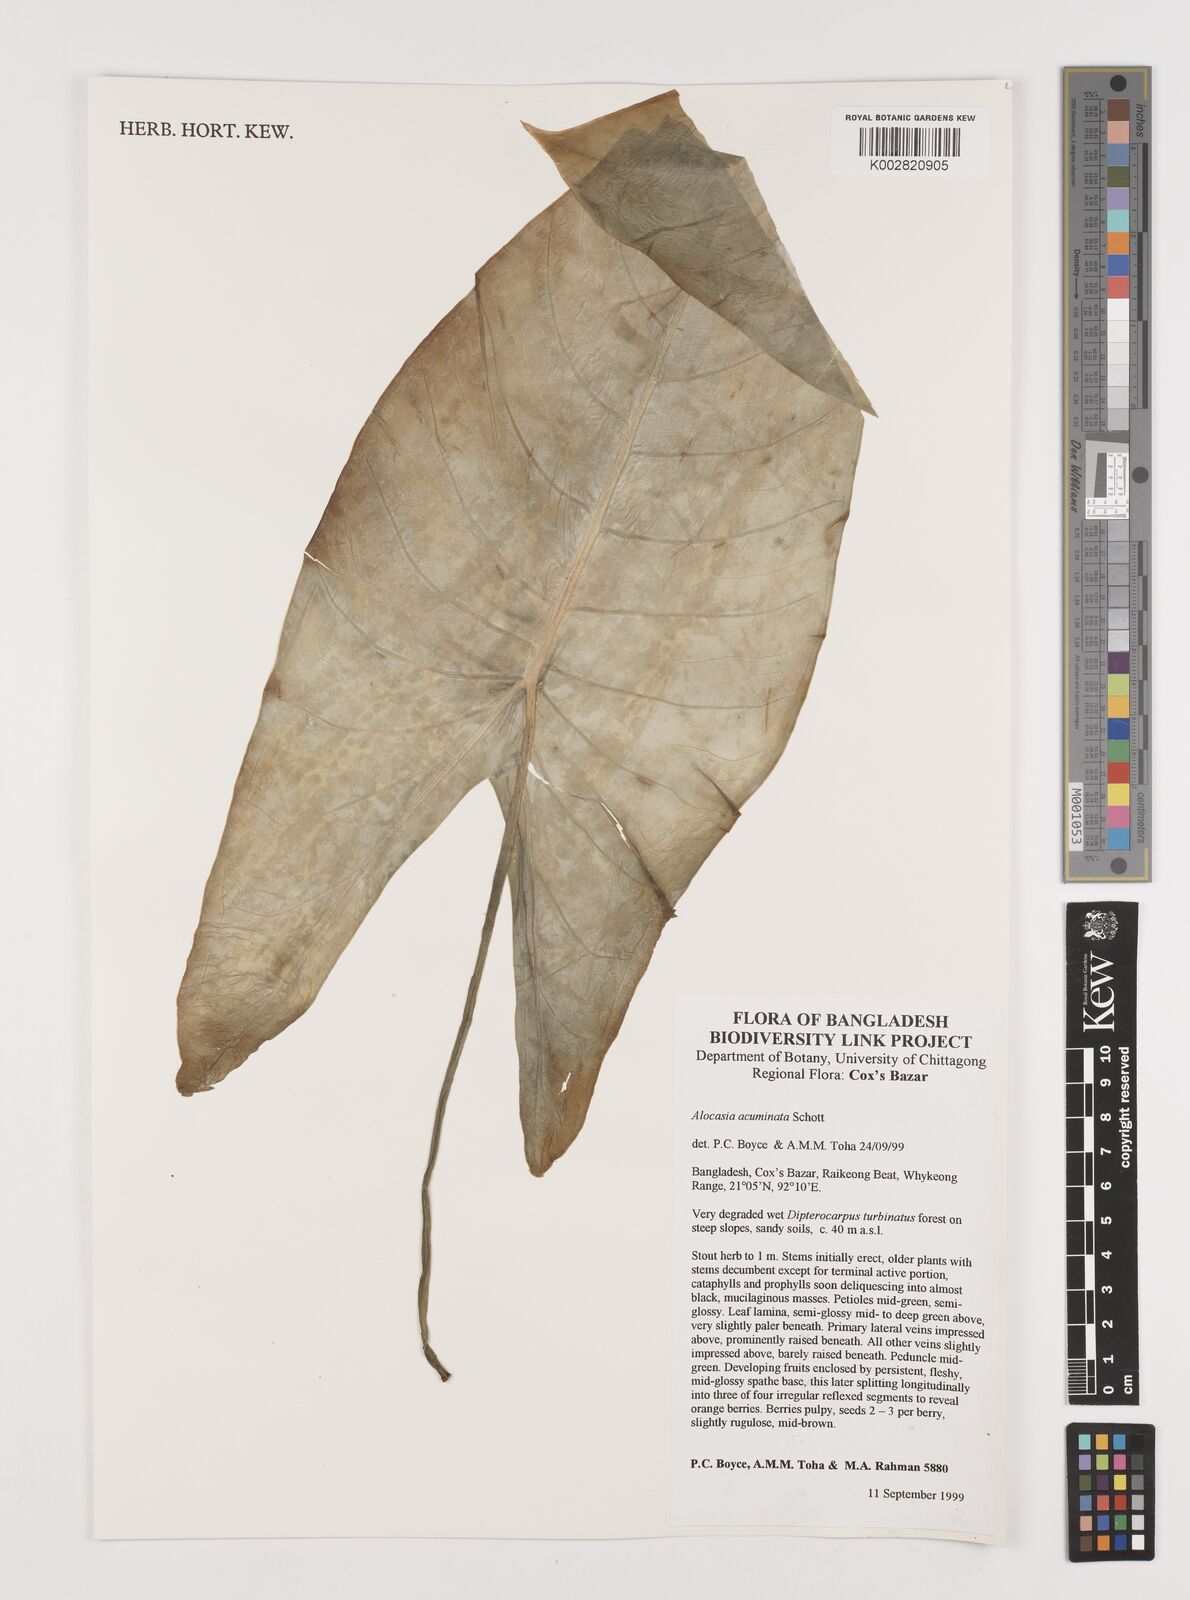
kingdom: Plantae
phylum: Tracheophyta
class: Liliopsida
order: Alismatales
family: Araceae
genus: Alocasia
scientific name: Alocasia acuminata
